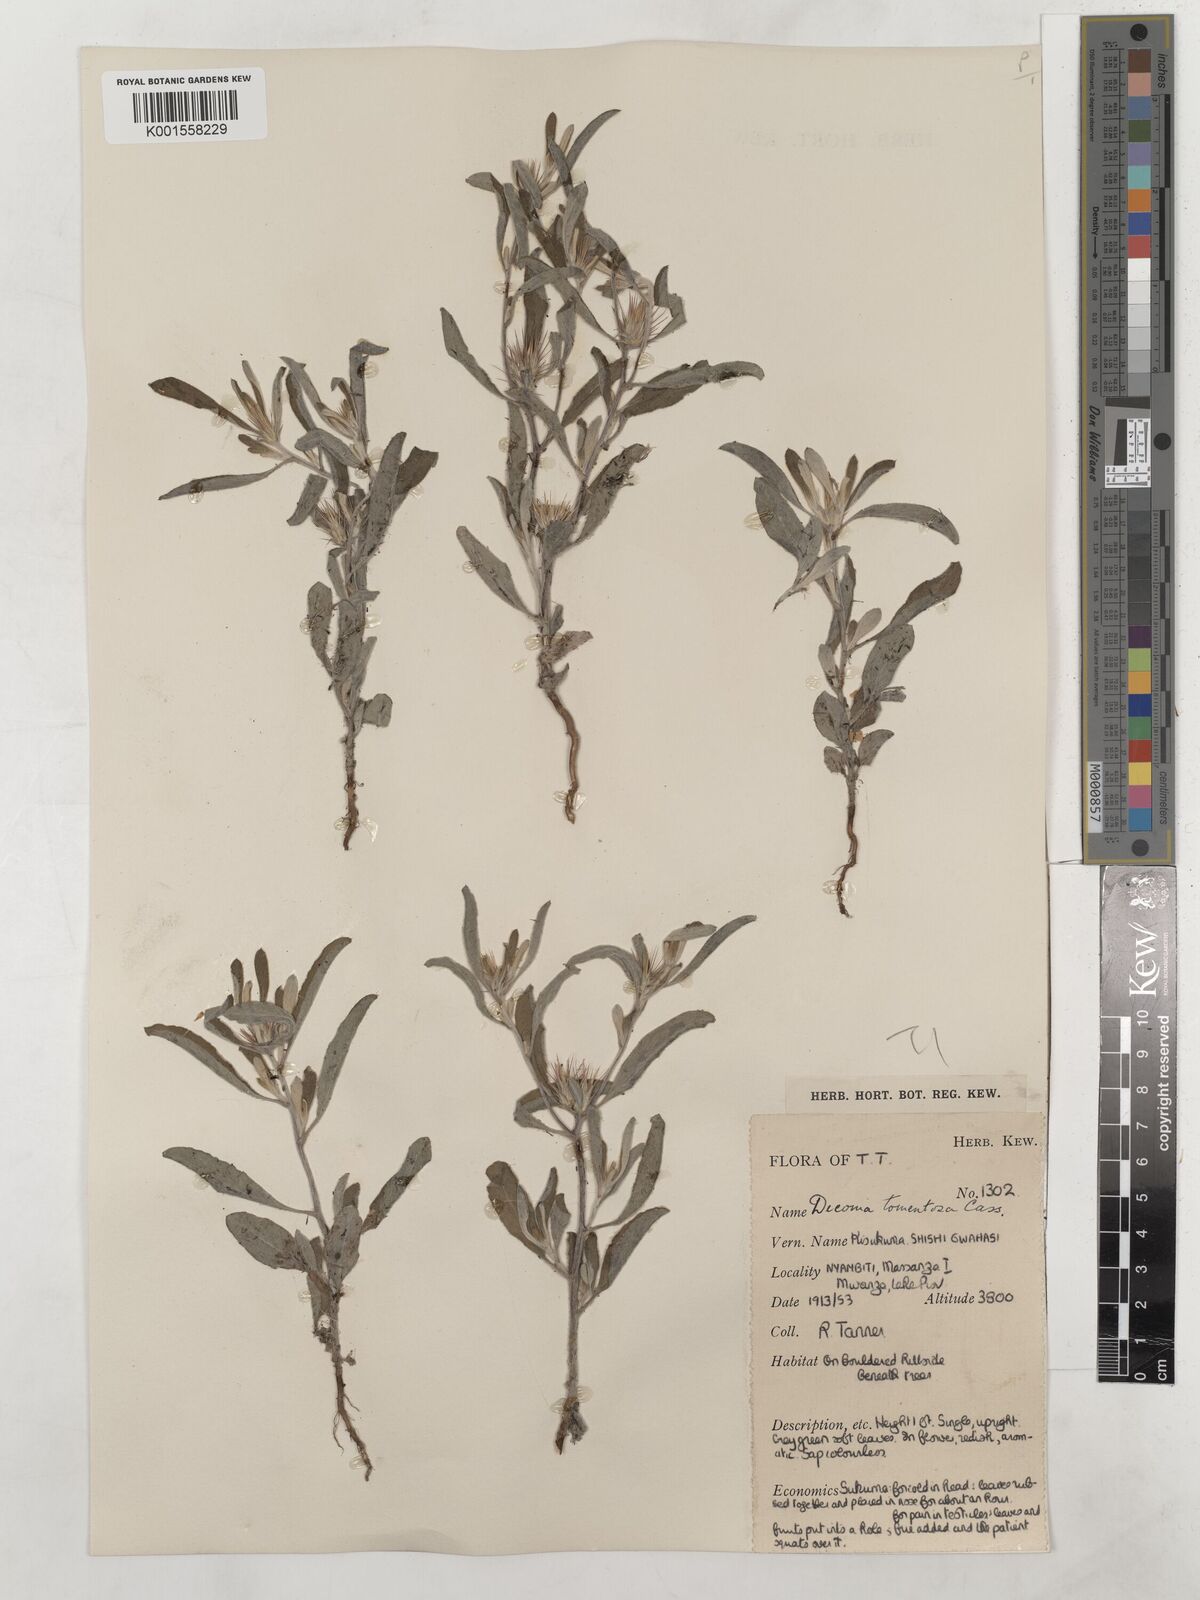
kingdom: Plantae
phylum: Tracheophyta
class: Magnoliopsida
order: Asterales
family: Asteraceae
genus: Dicoma
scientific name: Dicoma tomentosa
